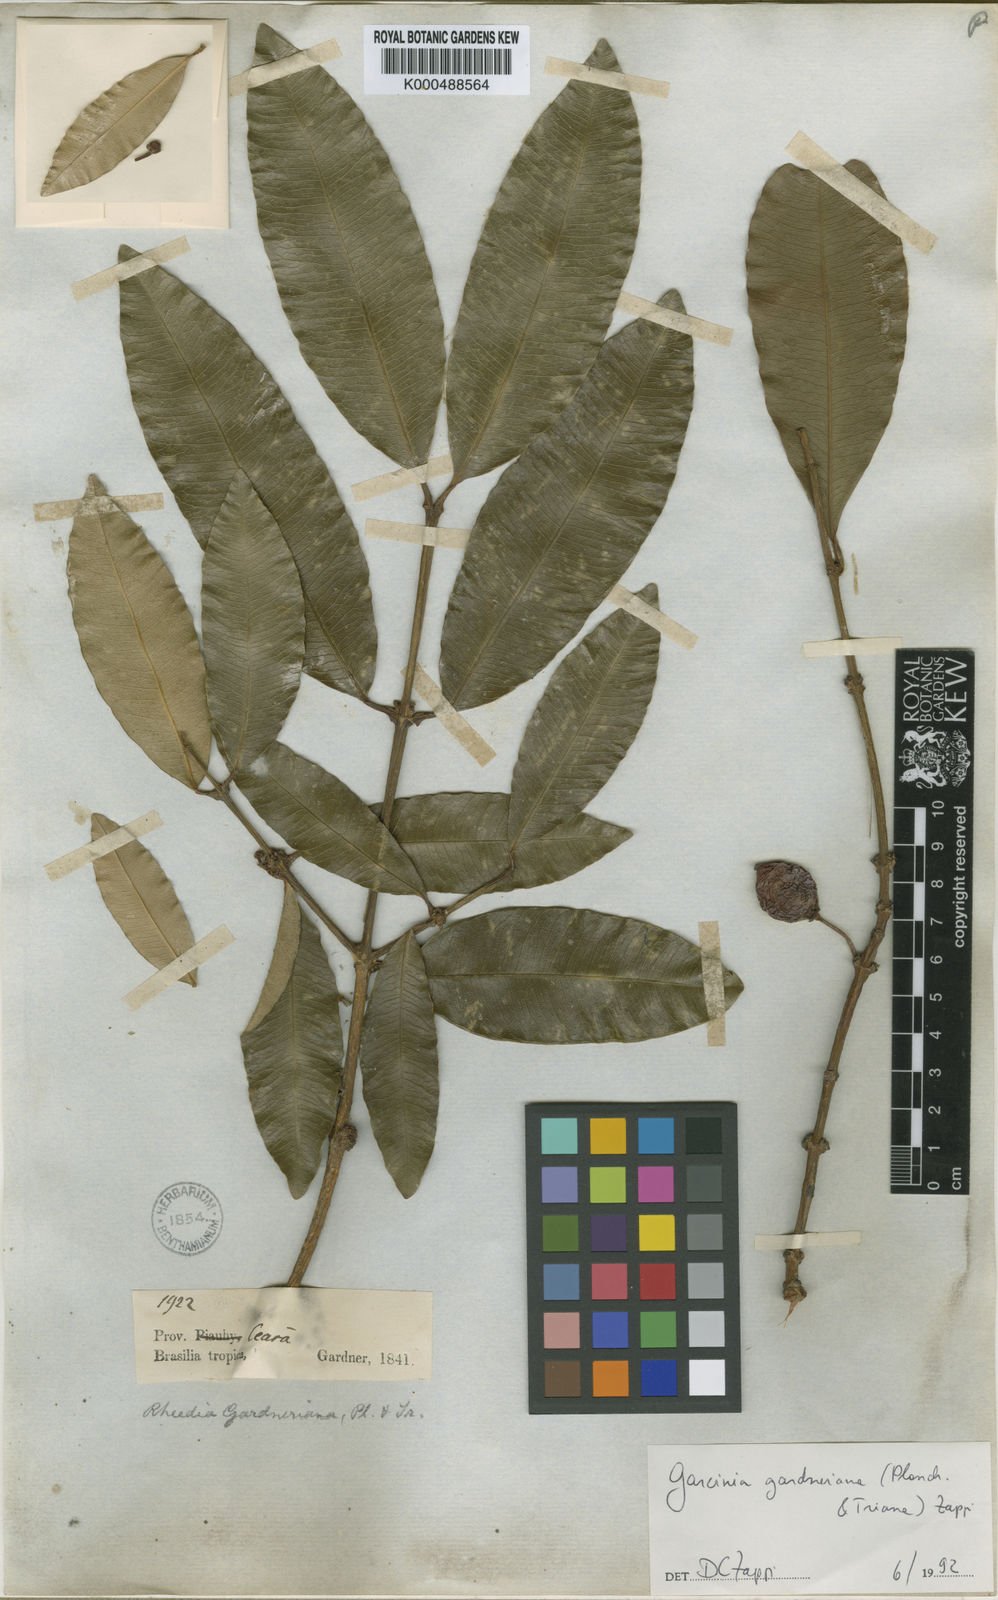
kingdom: Plantae
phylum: Tracheophyta
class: Magnoliopsida
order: Malpighiales
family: Clusiaceae
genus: Garcinia
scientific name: Garcinia gardneriana
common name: Achacha
